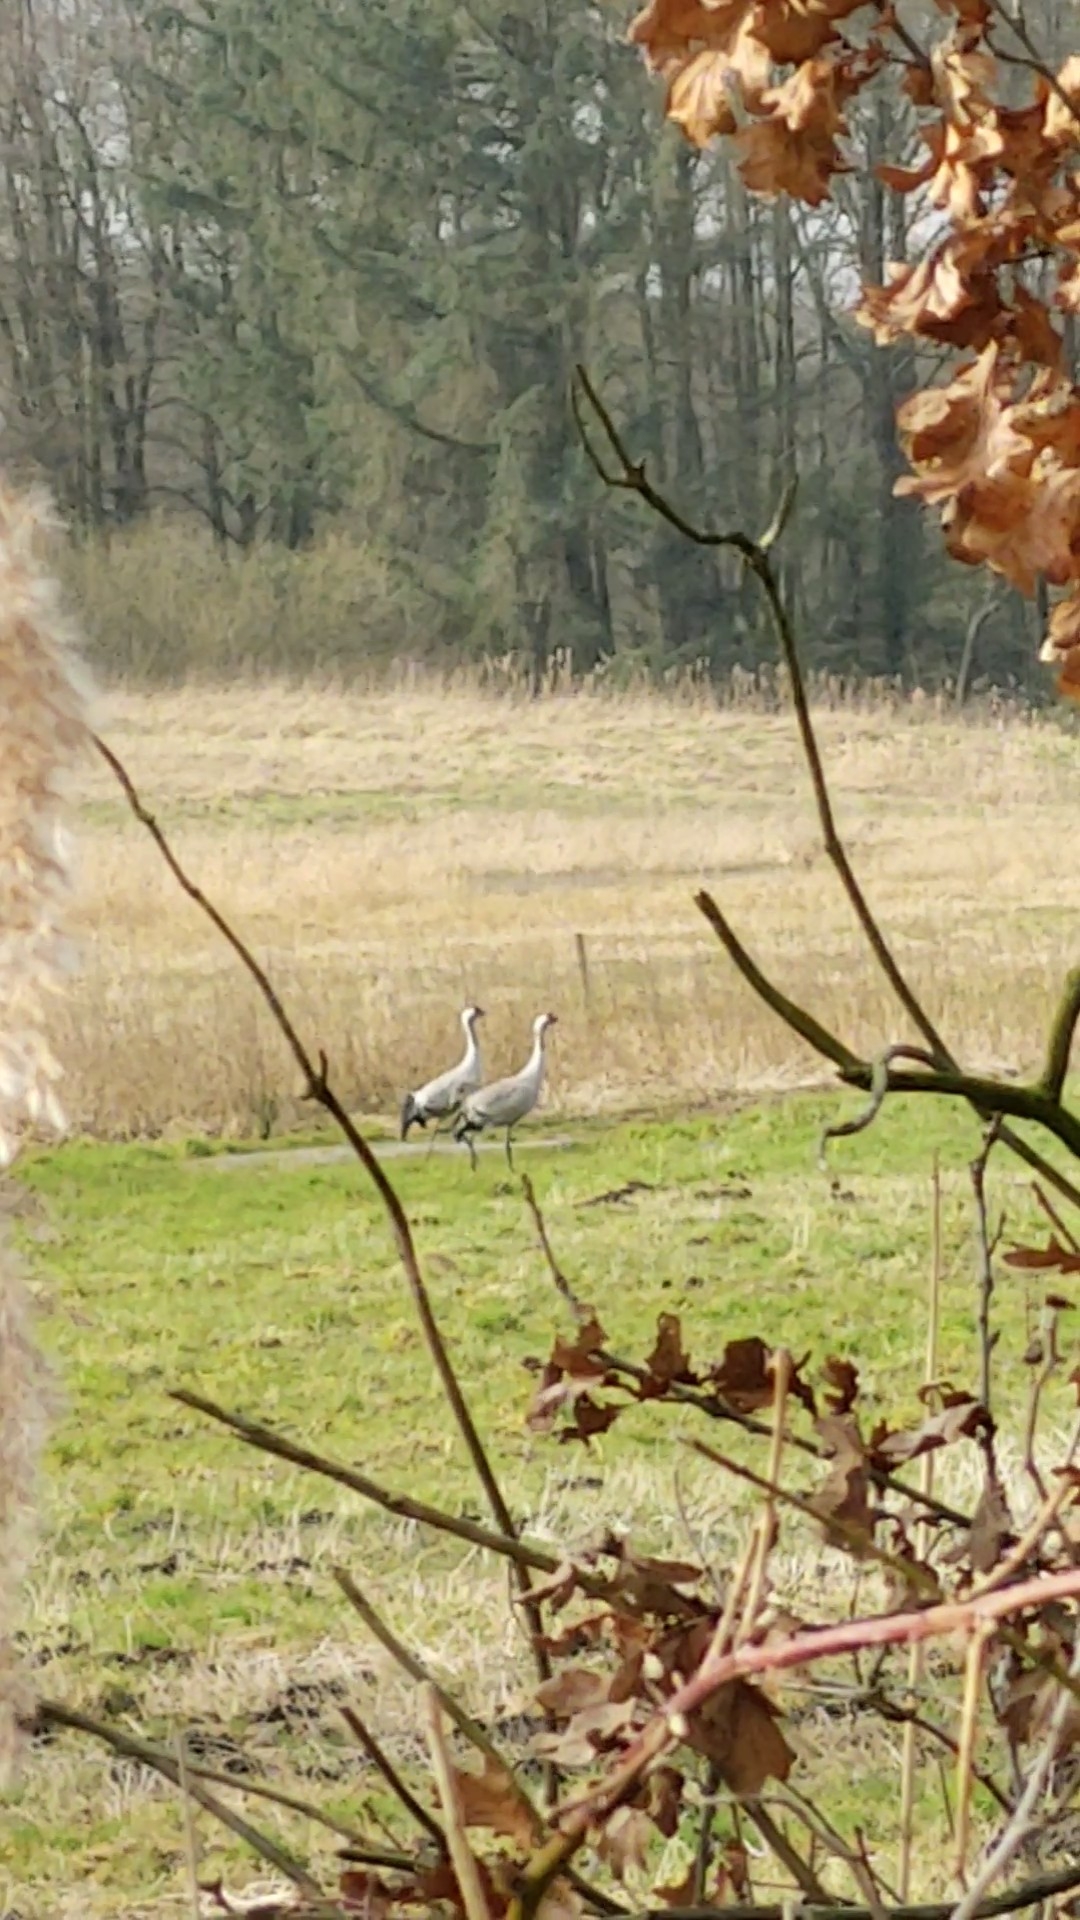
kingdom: Animalia
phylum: Chordata
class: Aves
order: Gruiformes
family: Gruidae
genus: Grus
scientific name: Grus grus
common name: Trane
